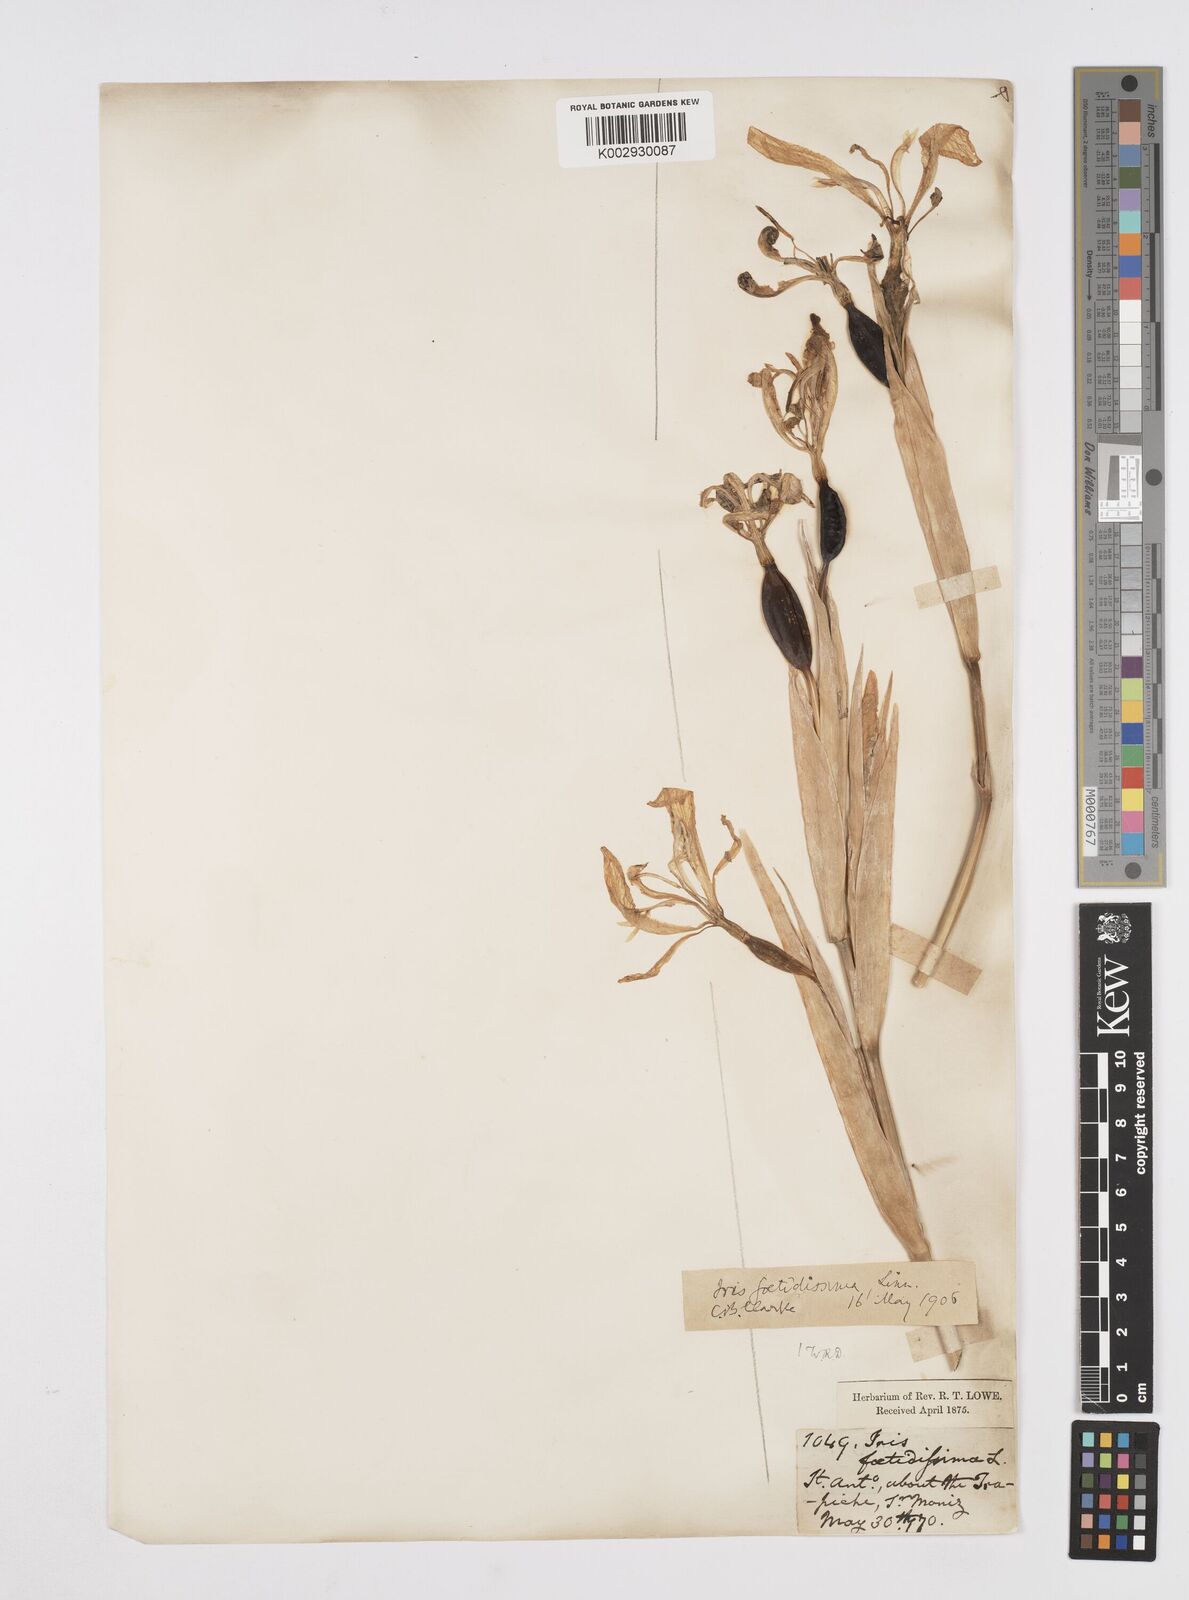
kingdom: Plantae
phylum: Tracheophyta
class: Liliopsida
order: Asparagales
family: Iridaceae
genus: Iris
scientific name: Iris foetidissima
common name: Stinking iris
